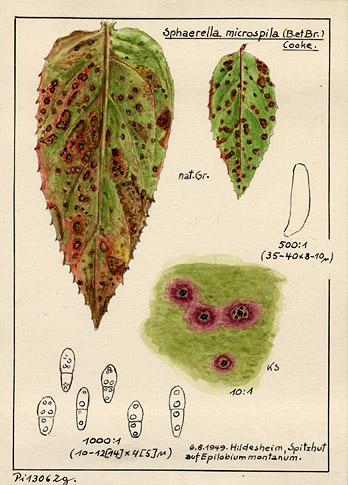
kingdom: Fungi
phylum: Ascomycota
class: Dothideomycetes
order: Venturiales
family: Venturiaceae
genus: Venturia
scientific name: Venturia maculiformis
